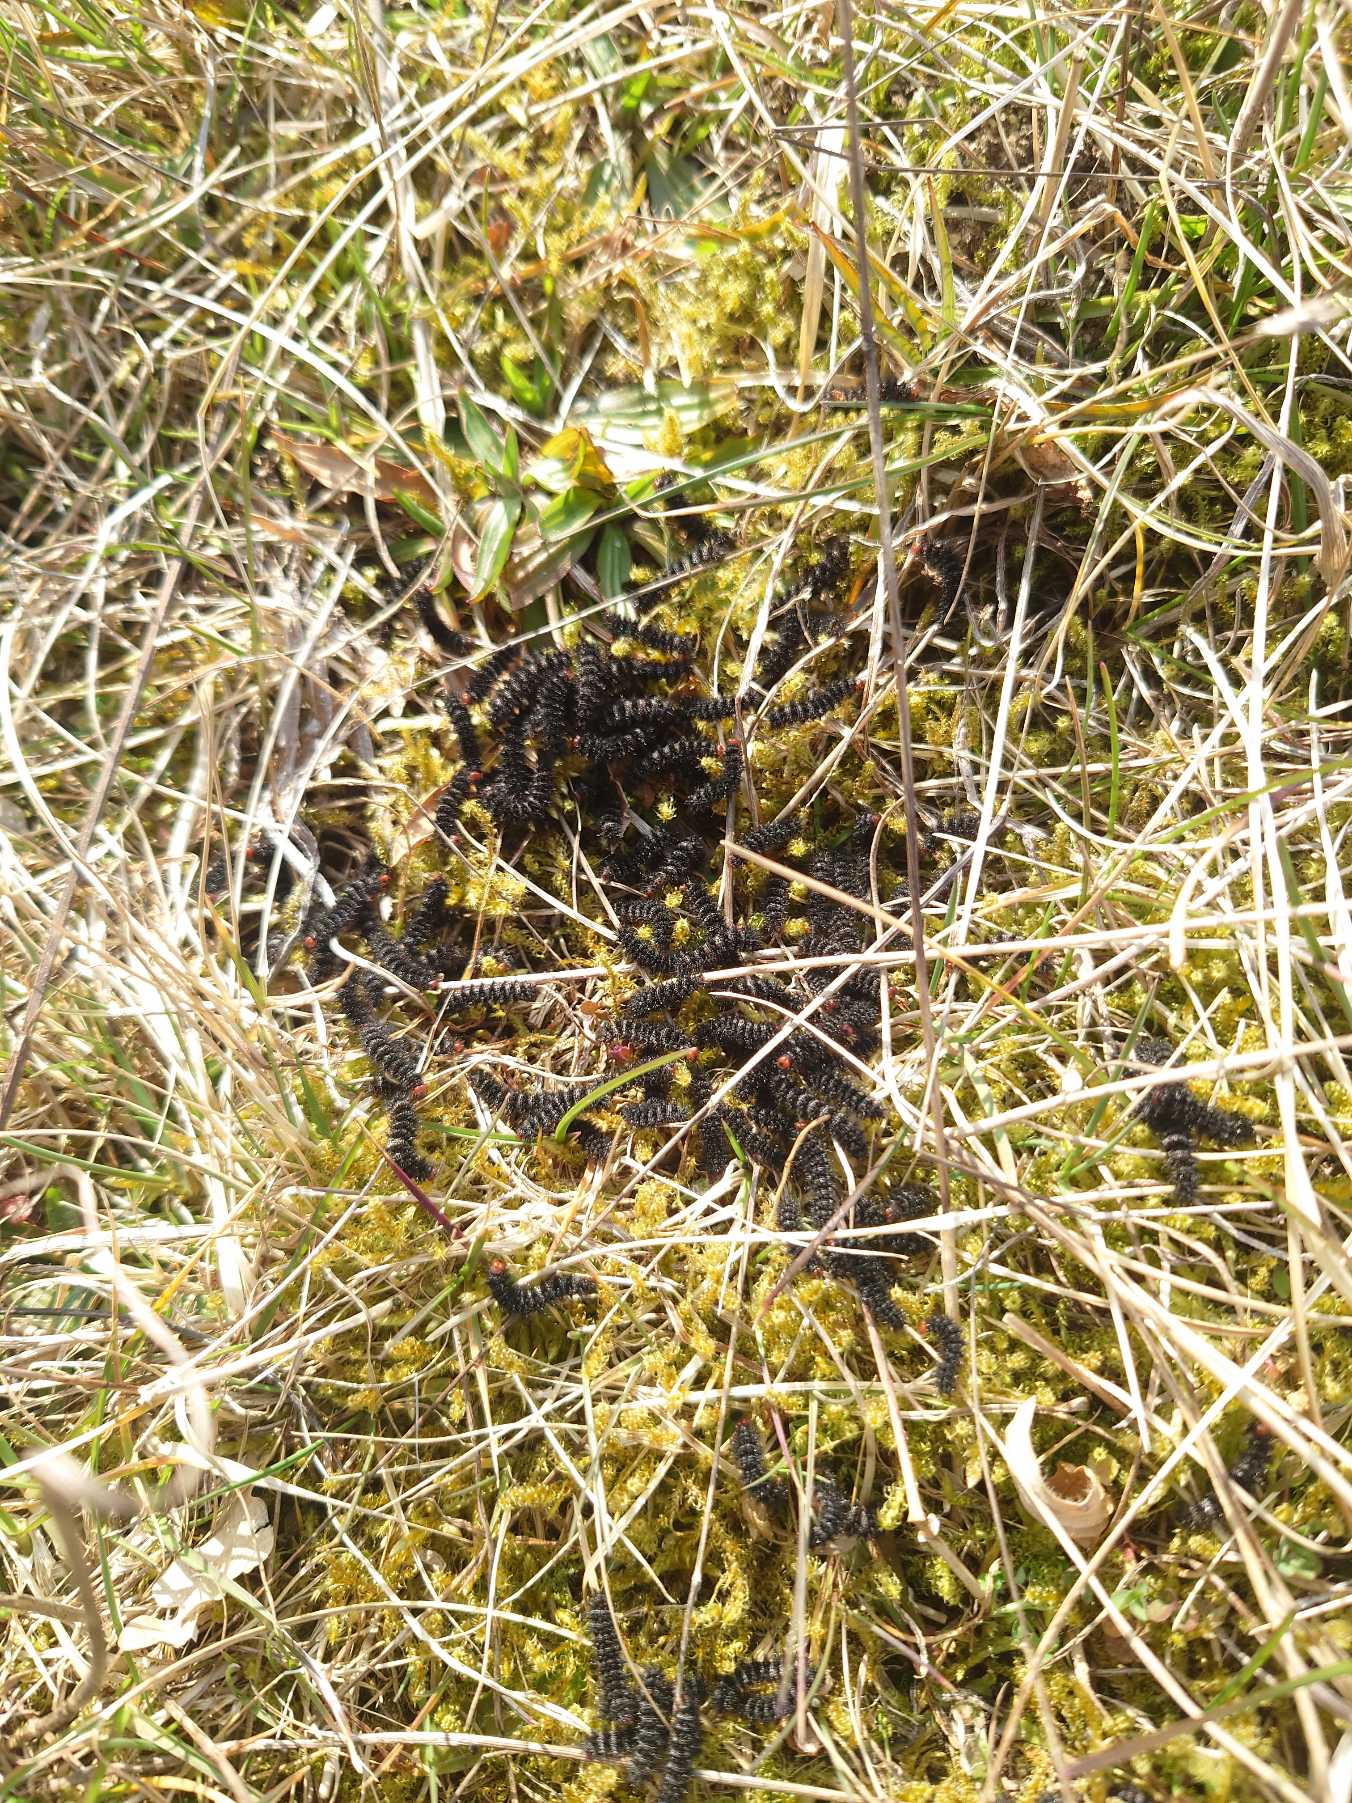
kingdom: Animalia
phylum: Arthropoda
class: Insecta
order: Lepidoptera
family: Nymphalidae
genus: Melitaea
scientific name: Melitaea cinxia
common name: Okkergul pletvinge
